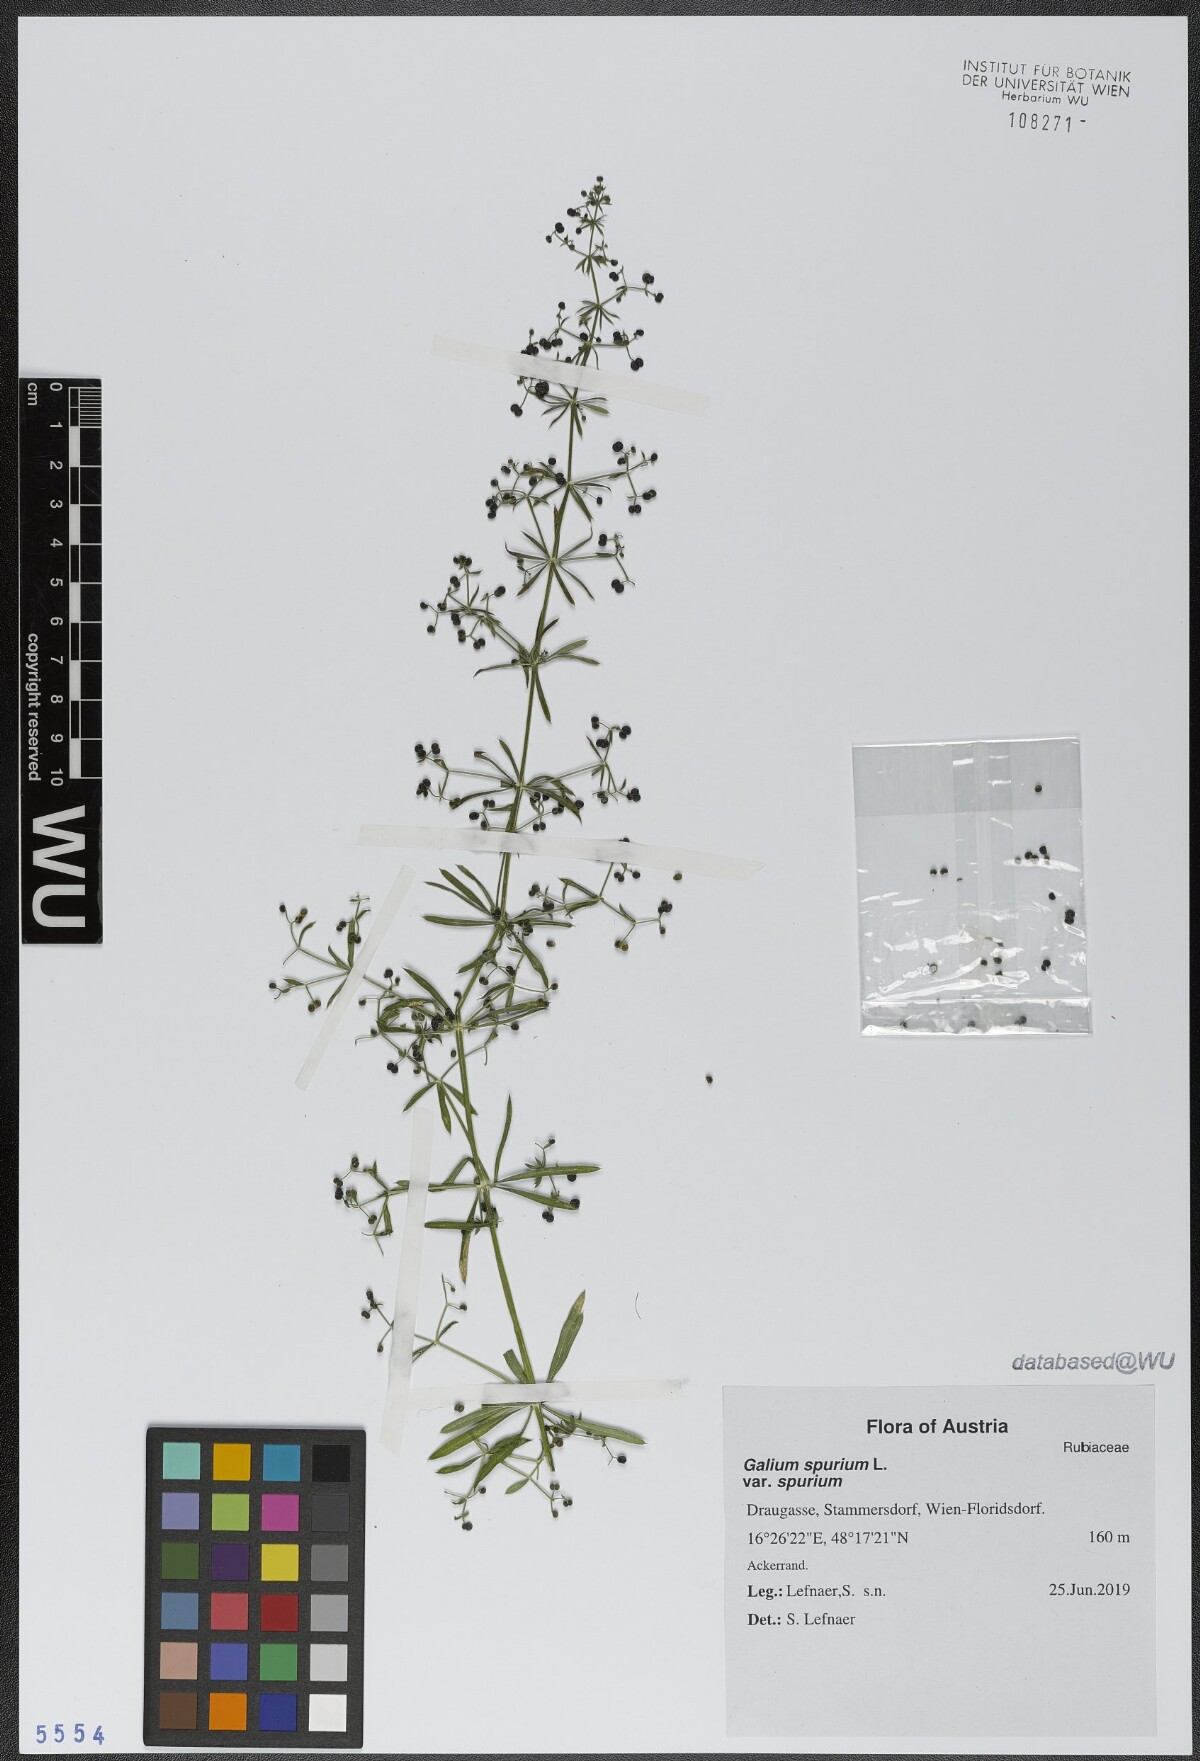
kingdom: Plantae
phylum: Tracheophyta
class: Magnoliopsida
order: Gentianales
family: Rubiaceae
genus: Galium
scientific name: Galium spurium
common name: False cleavers
